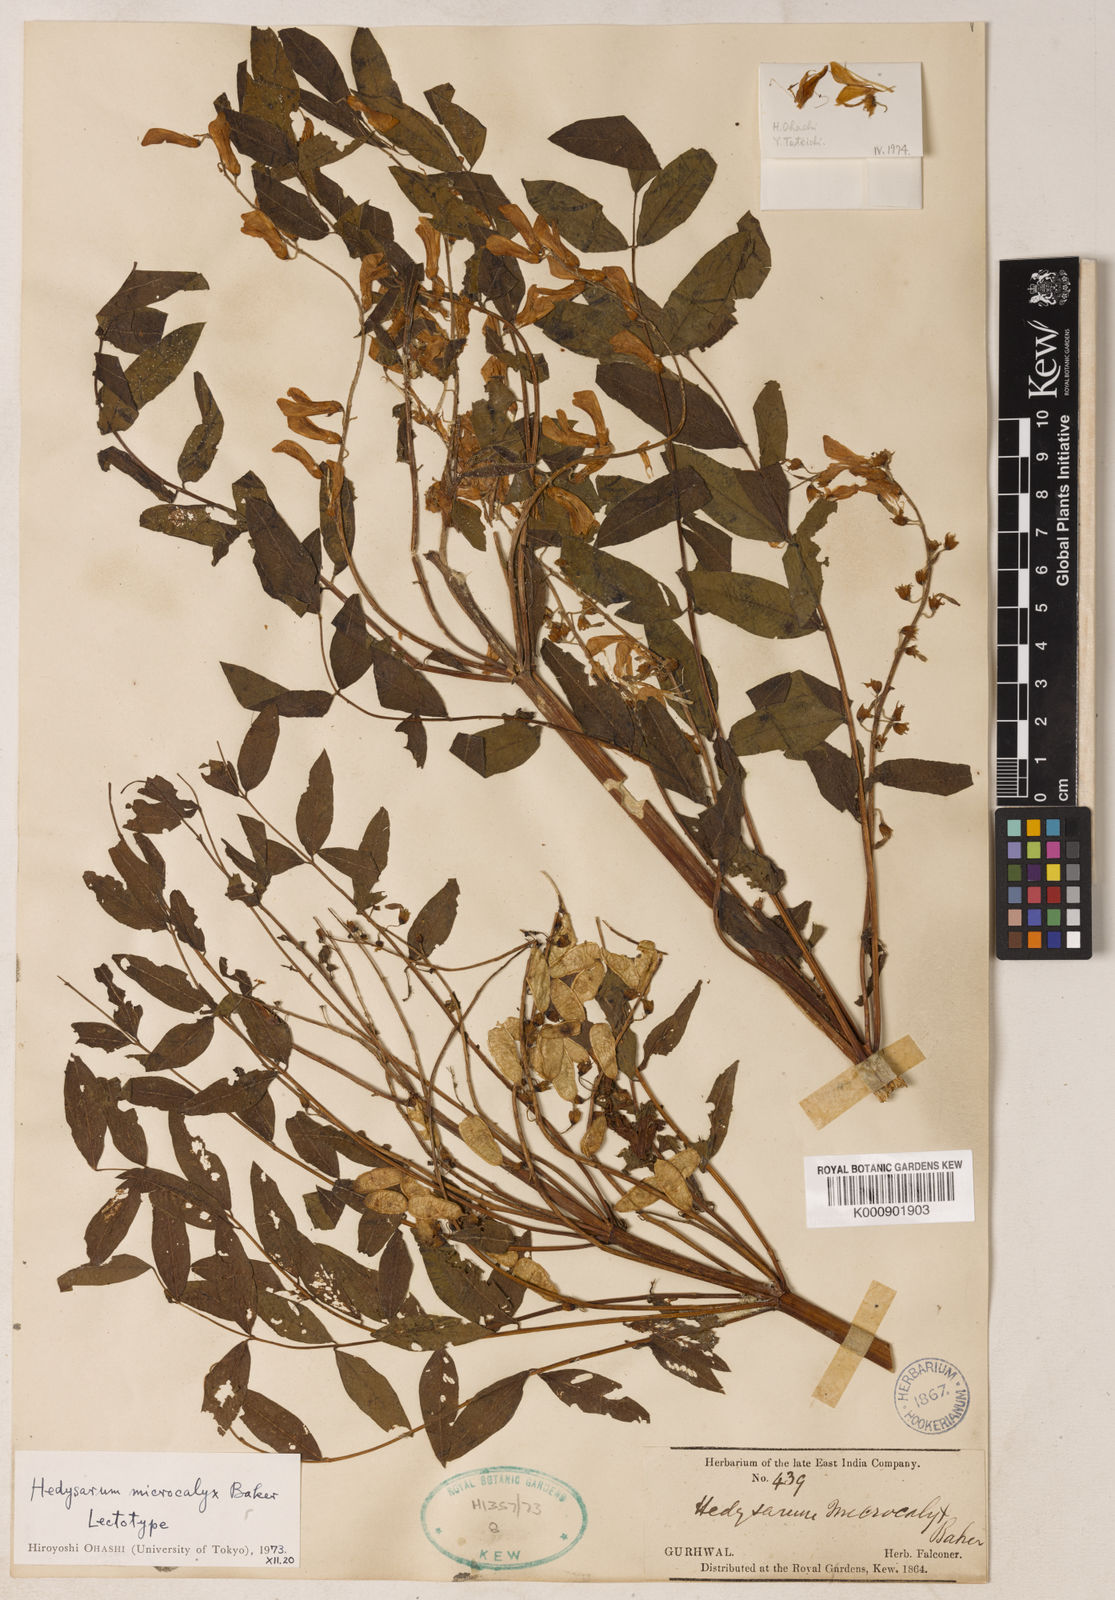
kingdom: Plantae
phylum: Tracheophyta
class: Magnoliopsida
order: Fabales
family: Fabaceae
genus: Hedysarum
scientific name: Hedysarum microcalyx
